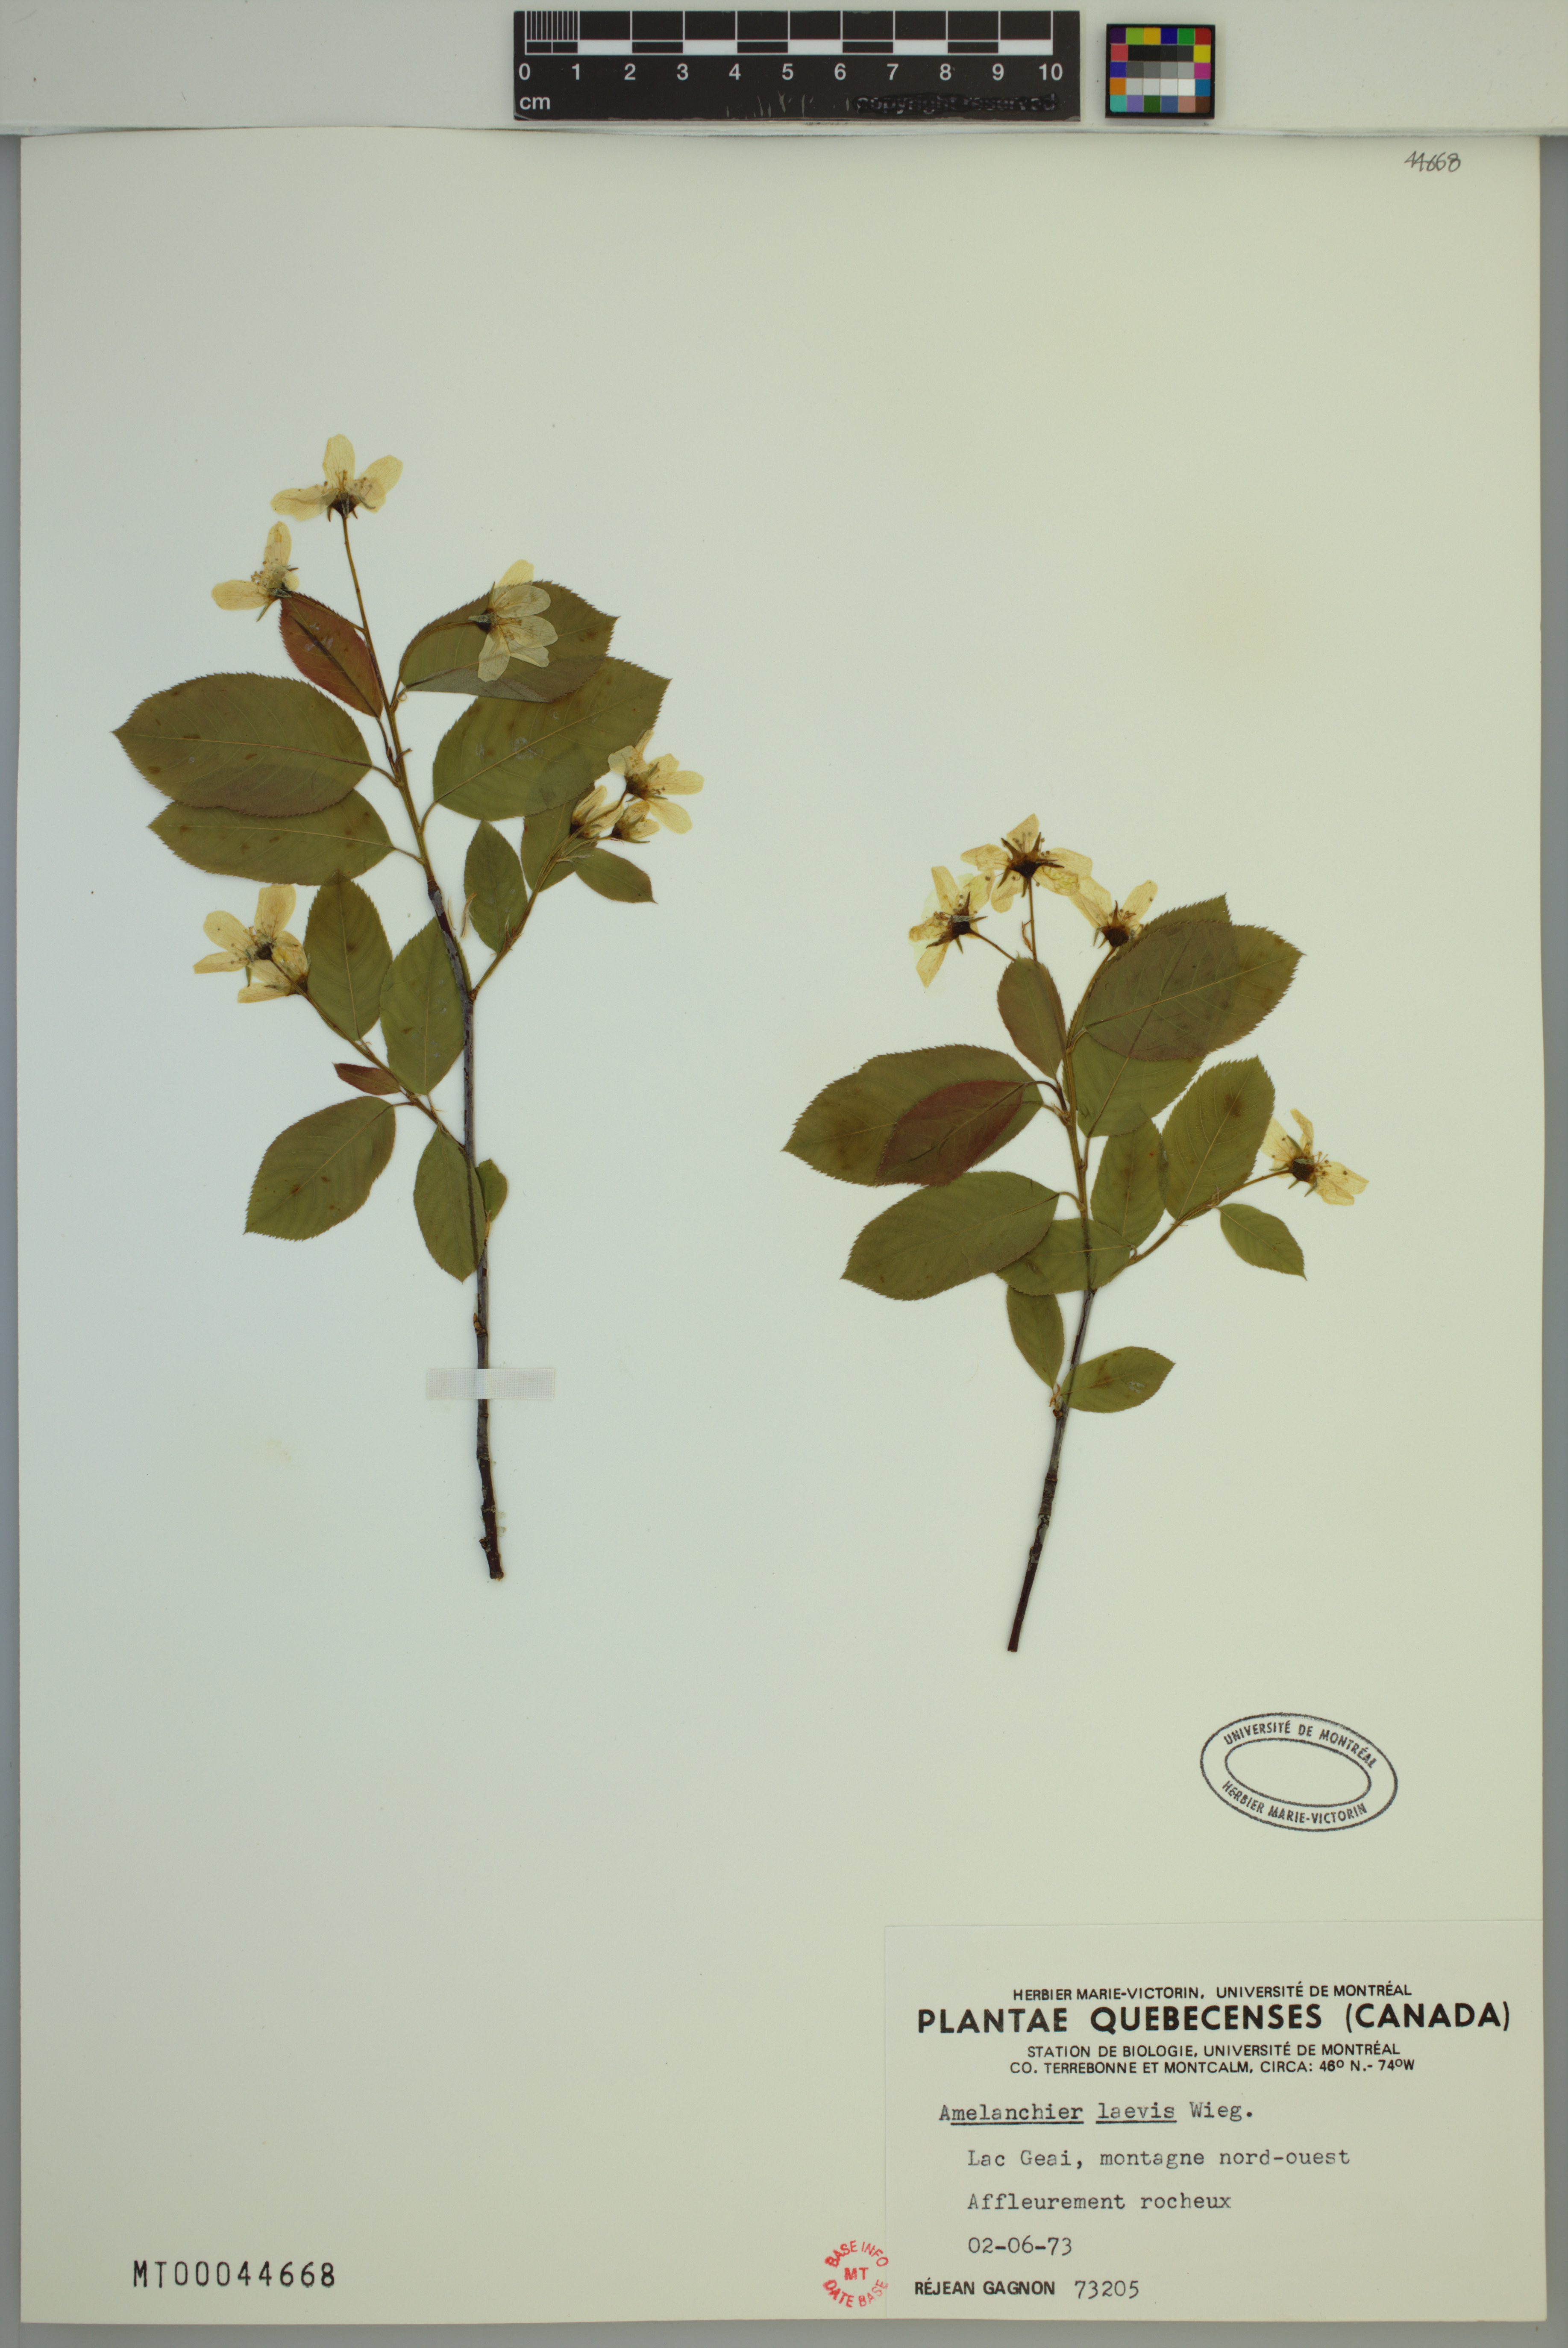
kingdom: Plantae
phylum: Tracheophyta
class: Magnoliopsida
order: Rosales
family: Rosaceae
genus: Amelanchier
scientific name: Amelanchier laevis
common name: Allegheny serviceberry
